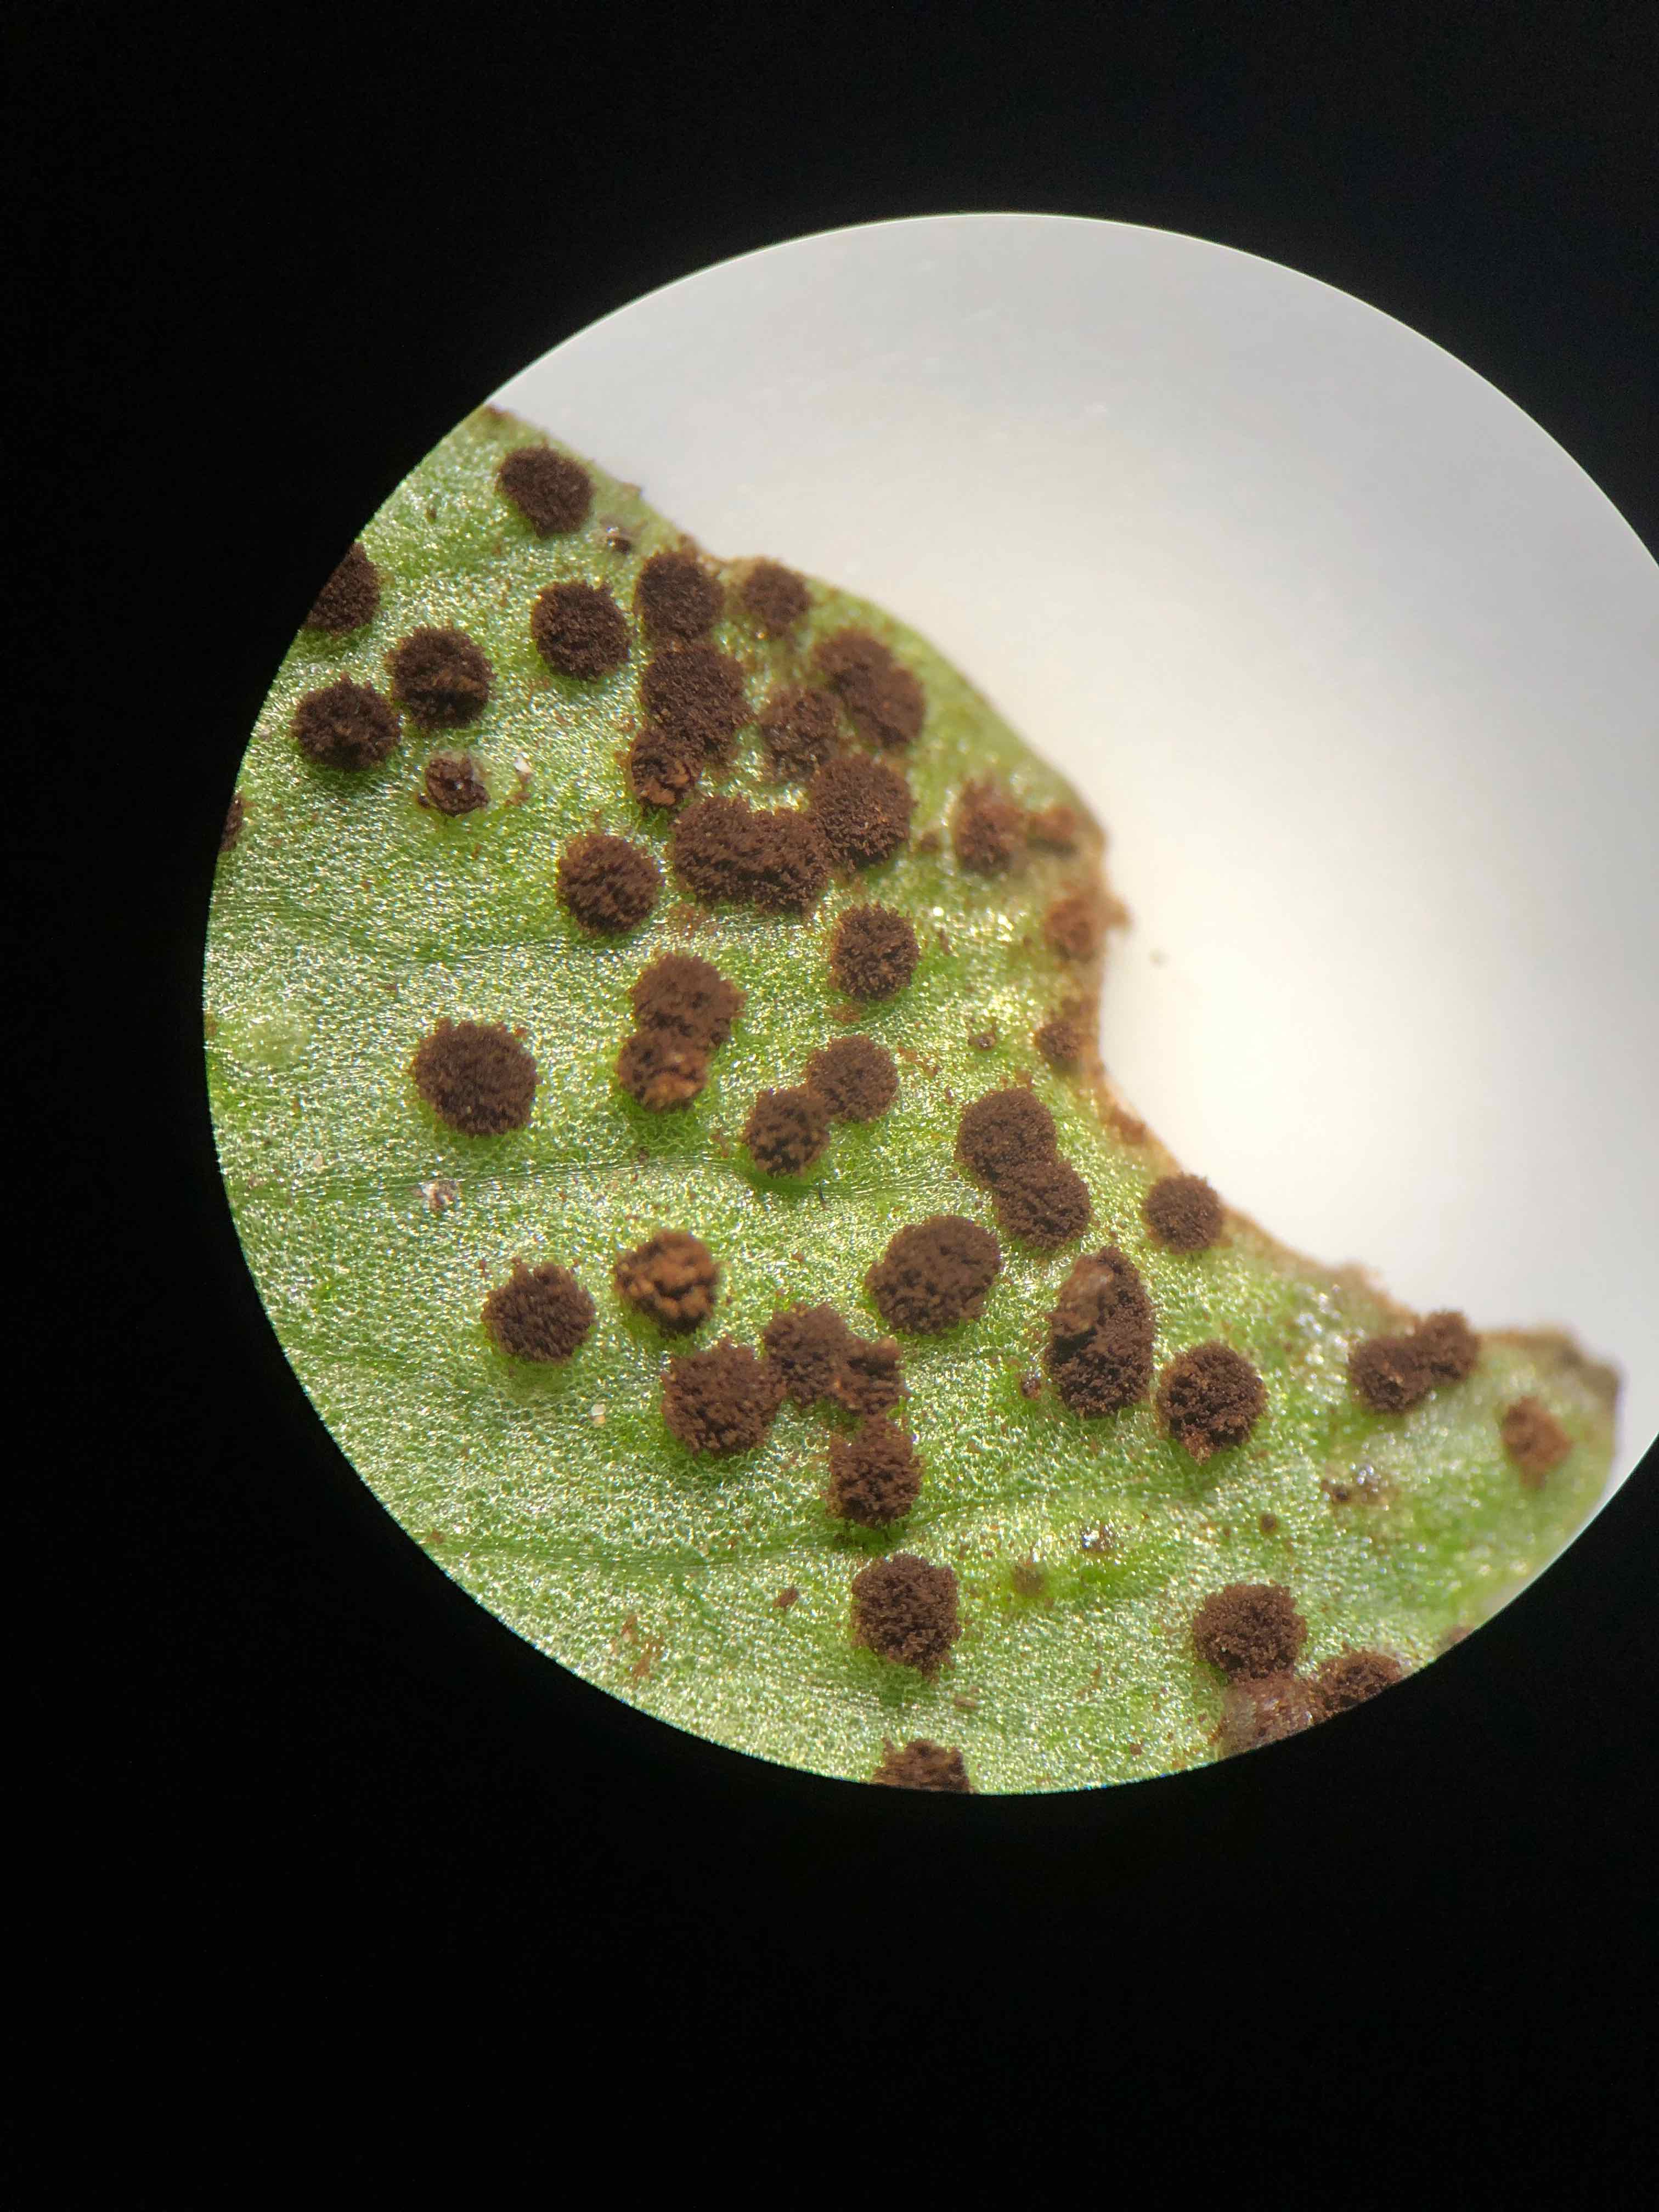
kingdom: Fungi
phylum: Basidiomycota
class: Pucciniomycetes
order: Pucciniales
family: Tranzscheliaceae
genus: Tranzschelia
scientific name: Tranzschelia anemones
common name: anemone-knæksporerust
